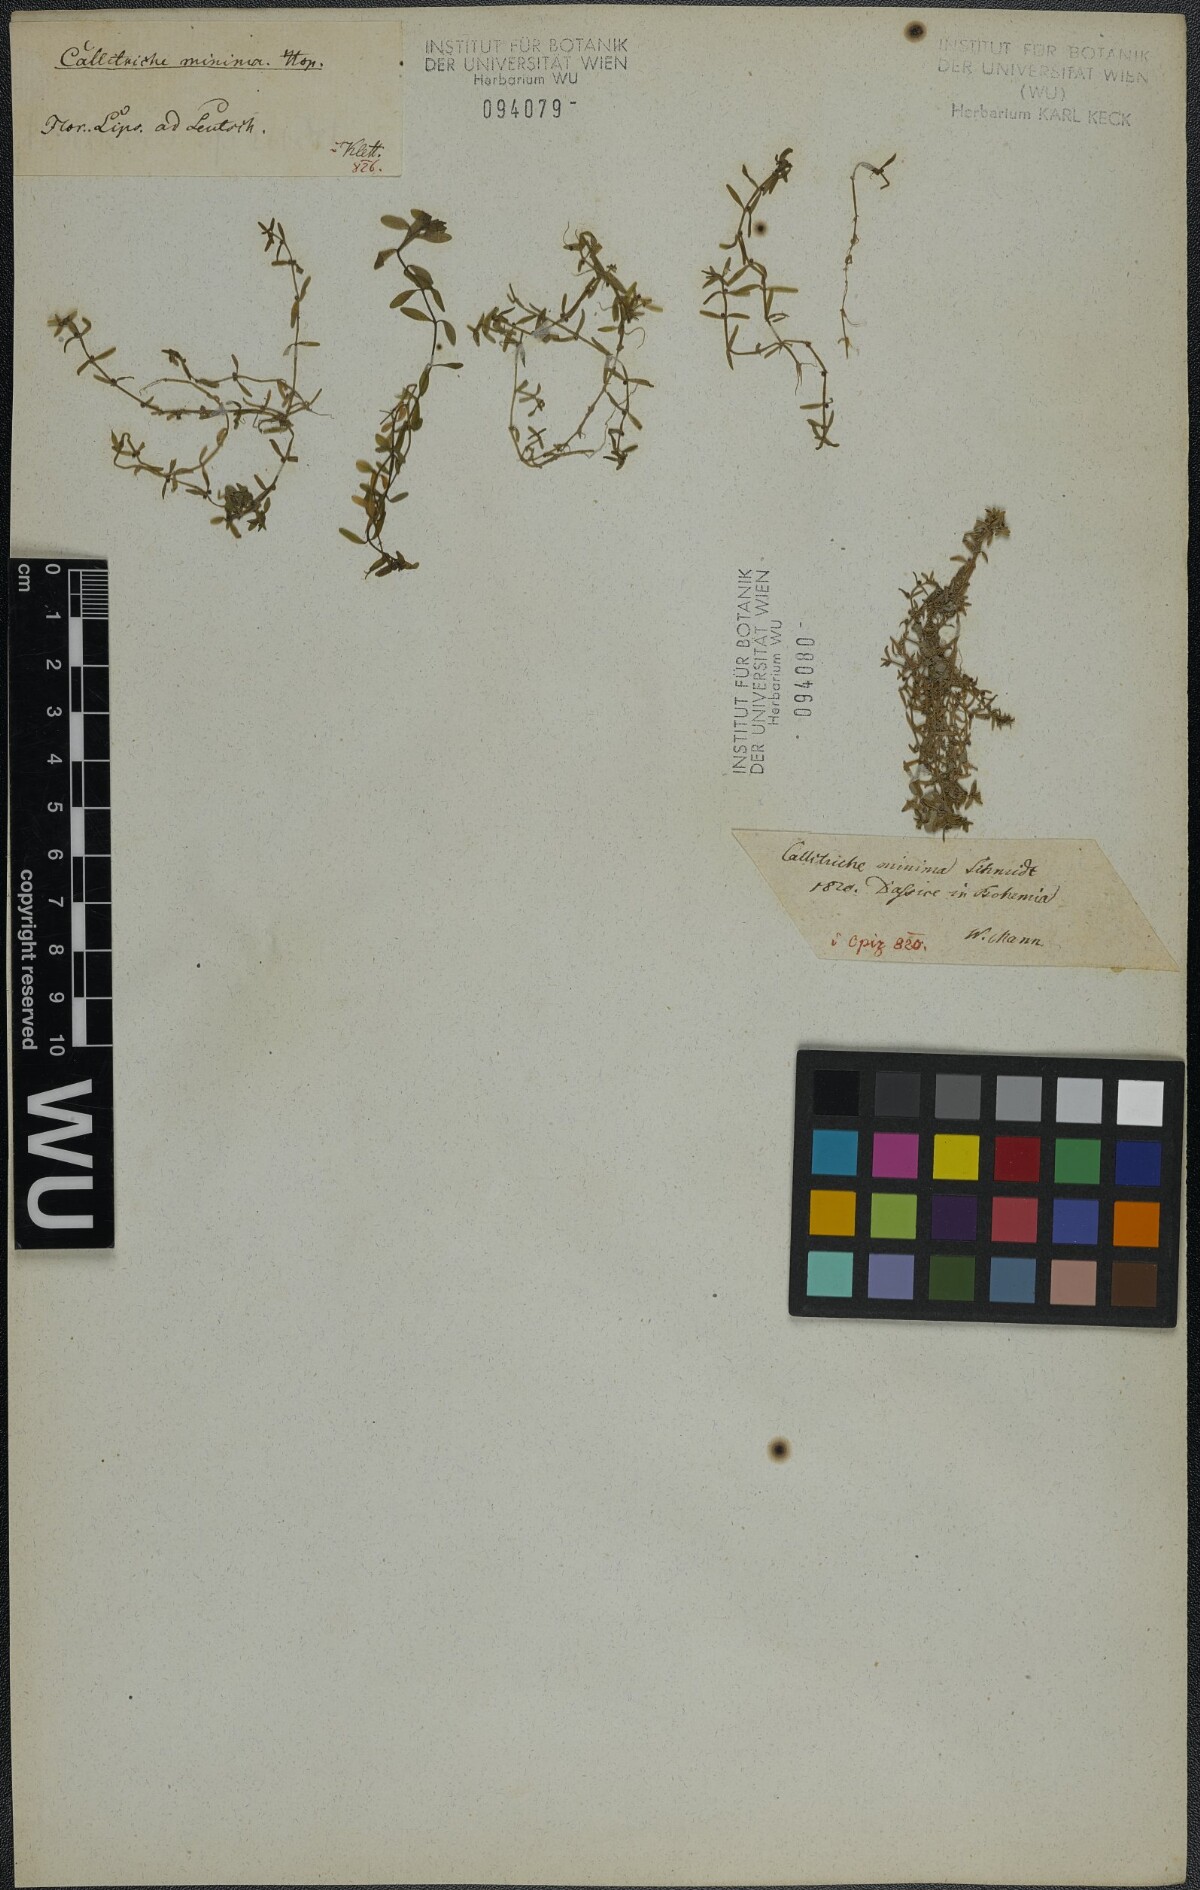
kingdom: Plantae
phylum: Tracheophyta
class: Magnoliopsida
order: Lamiales
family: Plantaginaceae
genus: Callitriche
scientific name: Callitriche palustris
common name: Spring water-starwort
